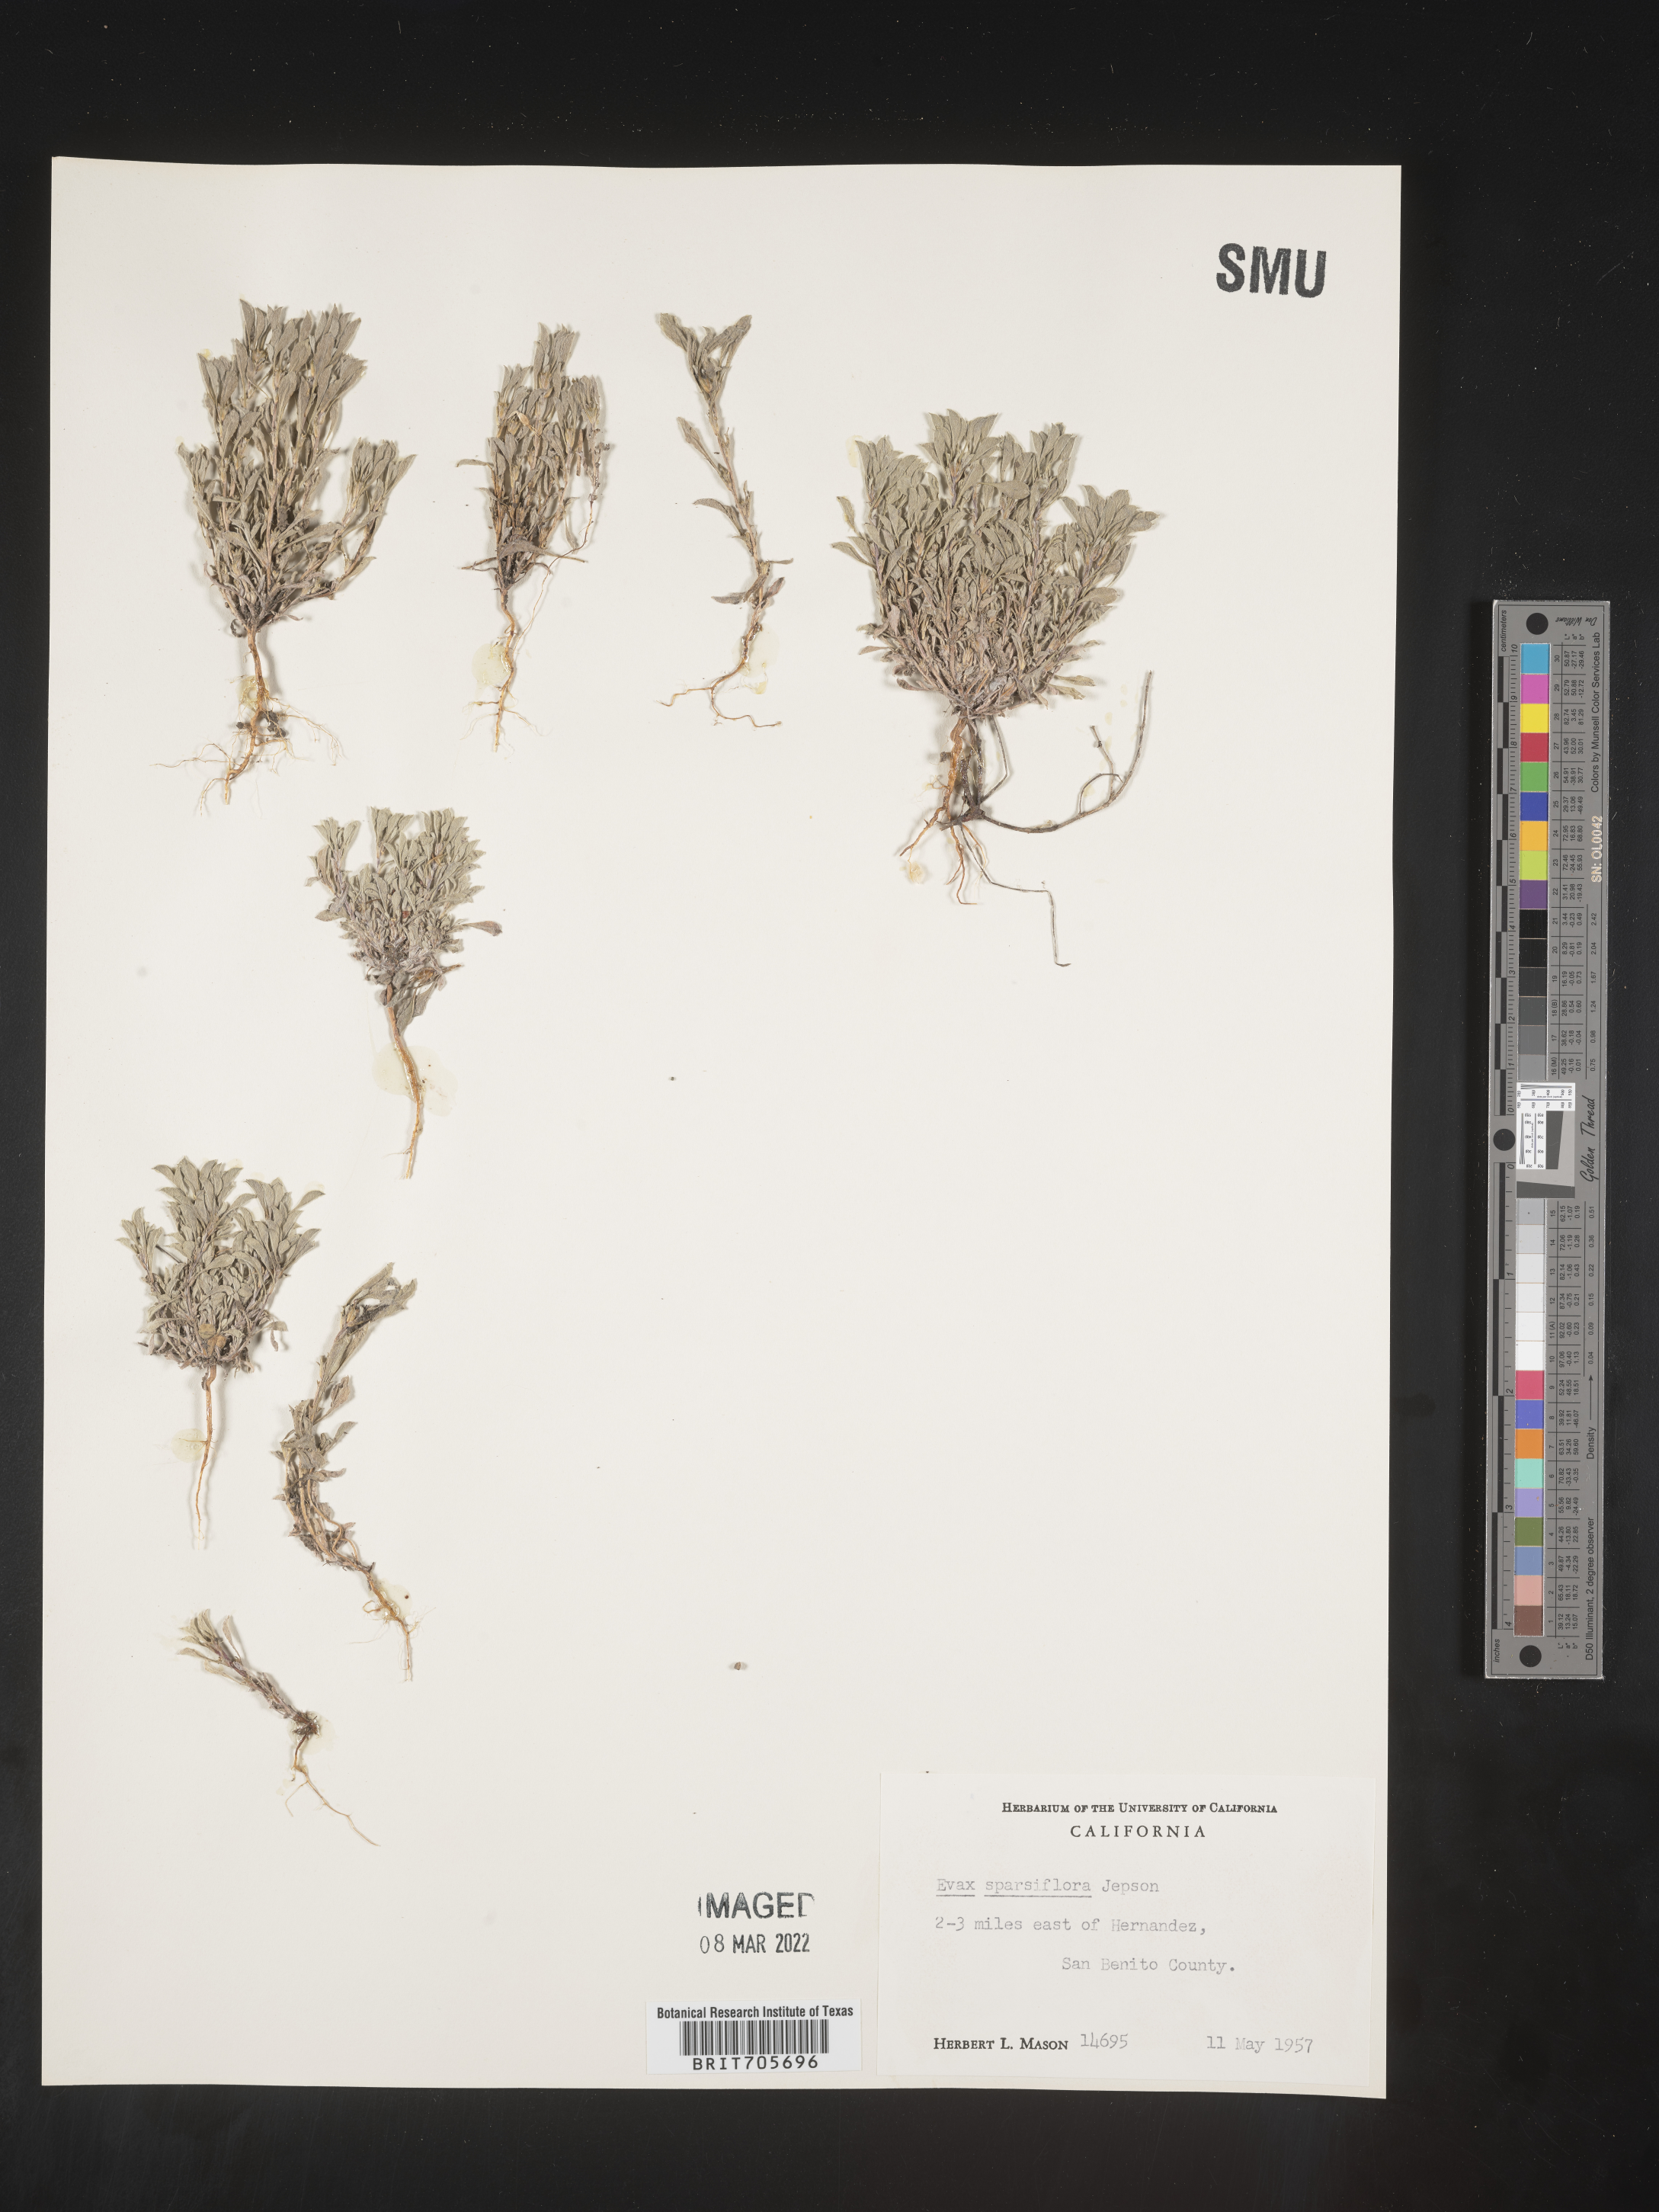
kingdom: Plantae
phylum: Tracheophyta
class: Magnoliopsida
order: Asterales
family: Asteraceae
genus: Hesperevax
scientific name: Hesperevax sparsiflora
